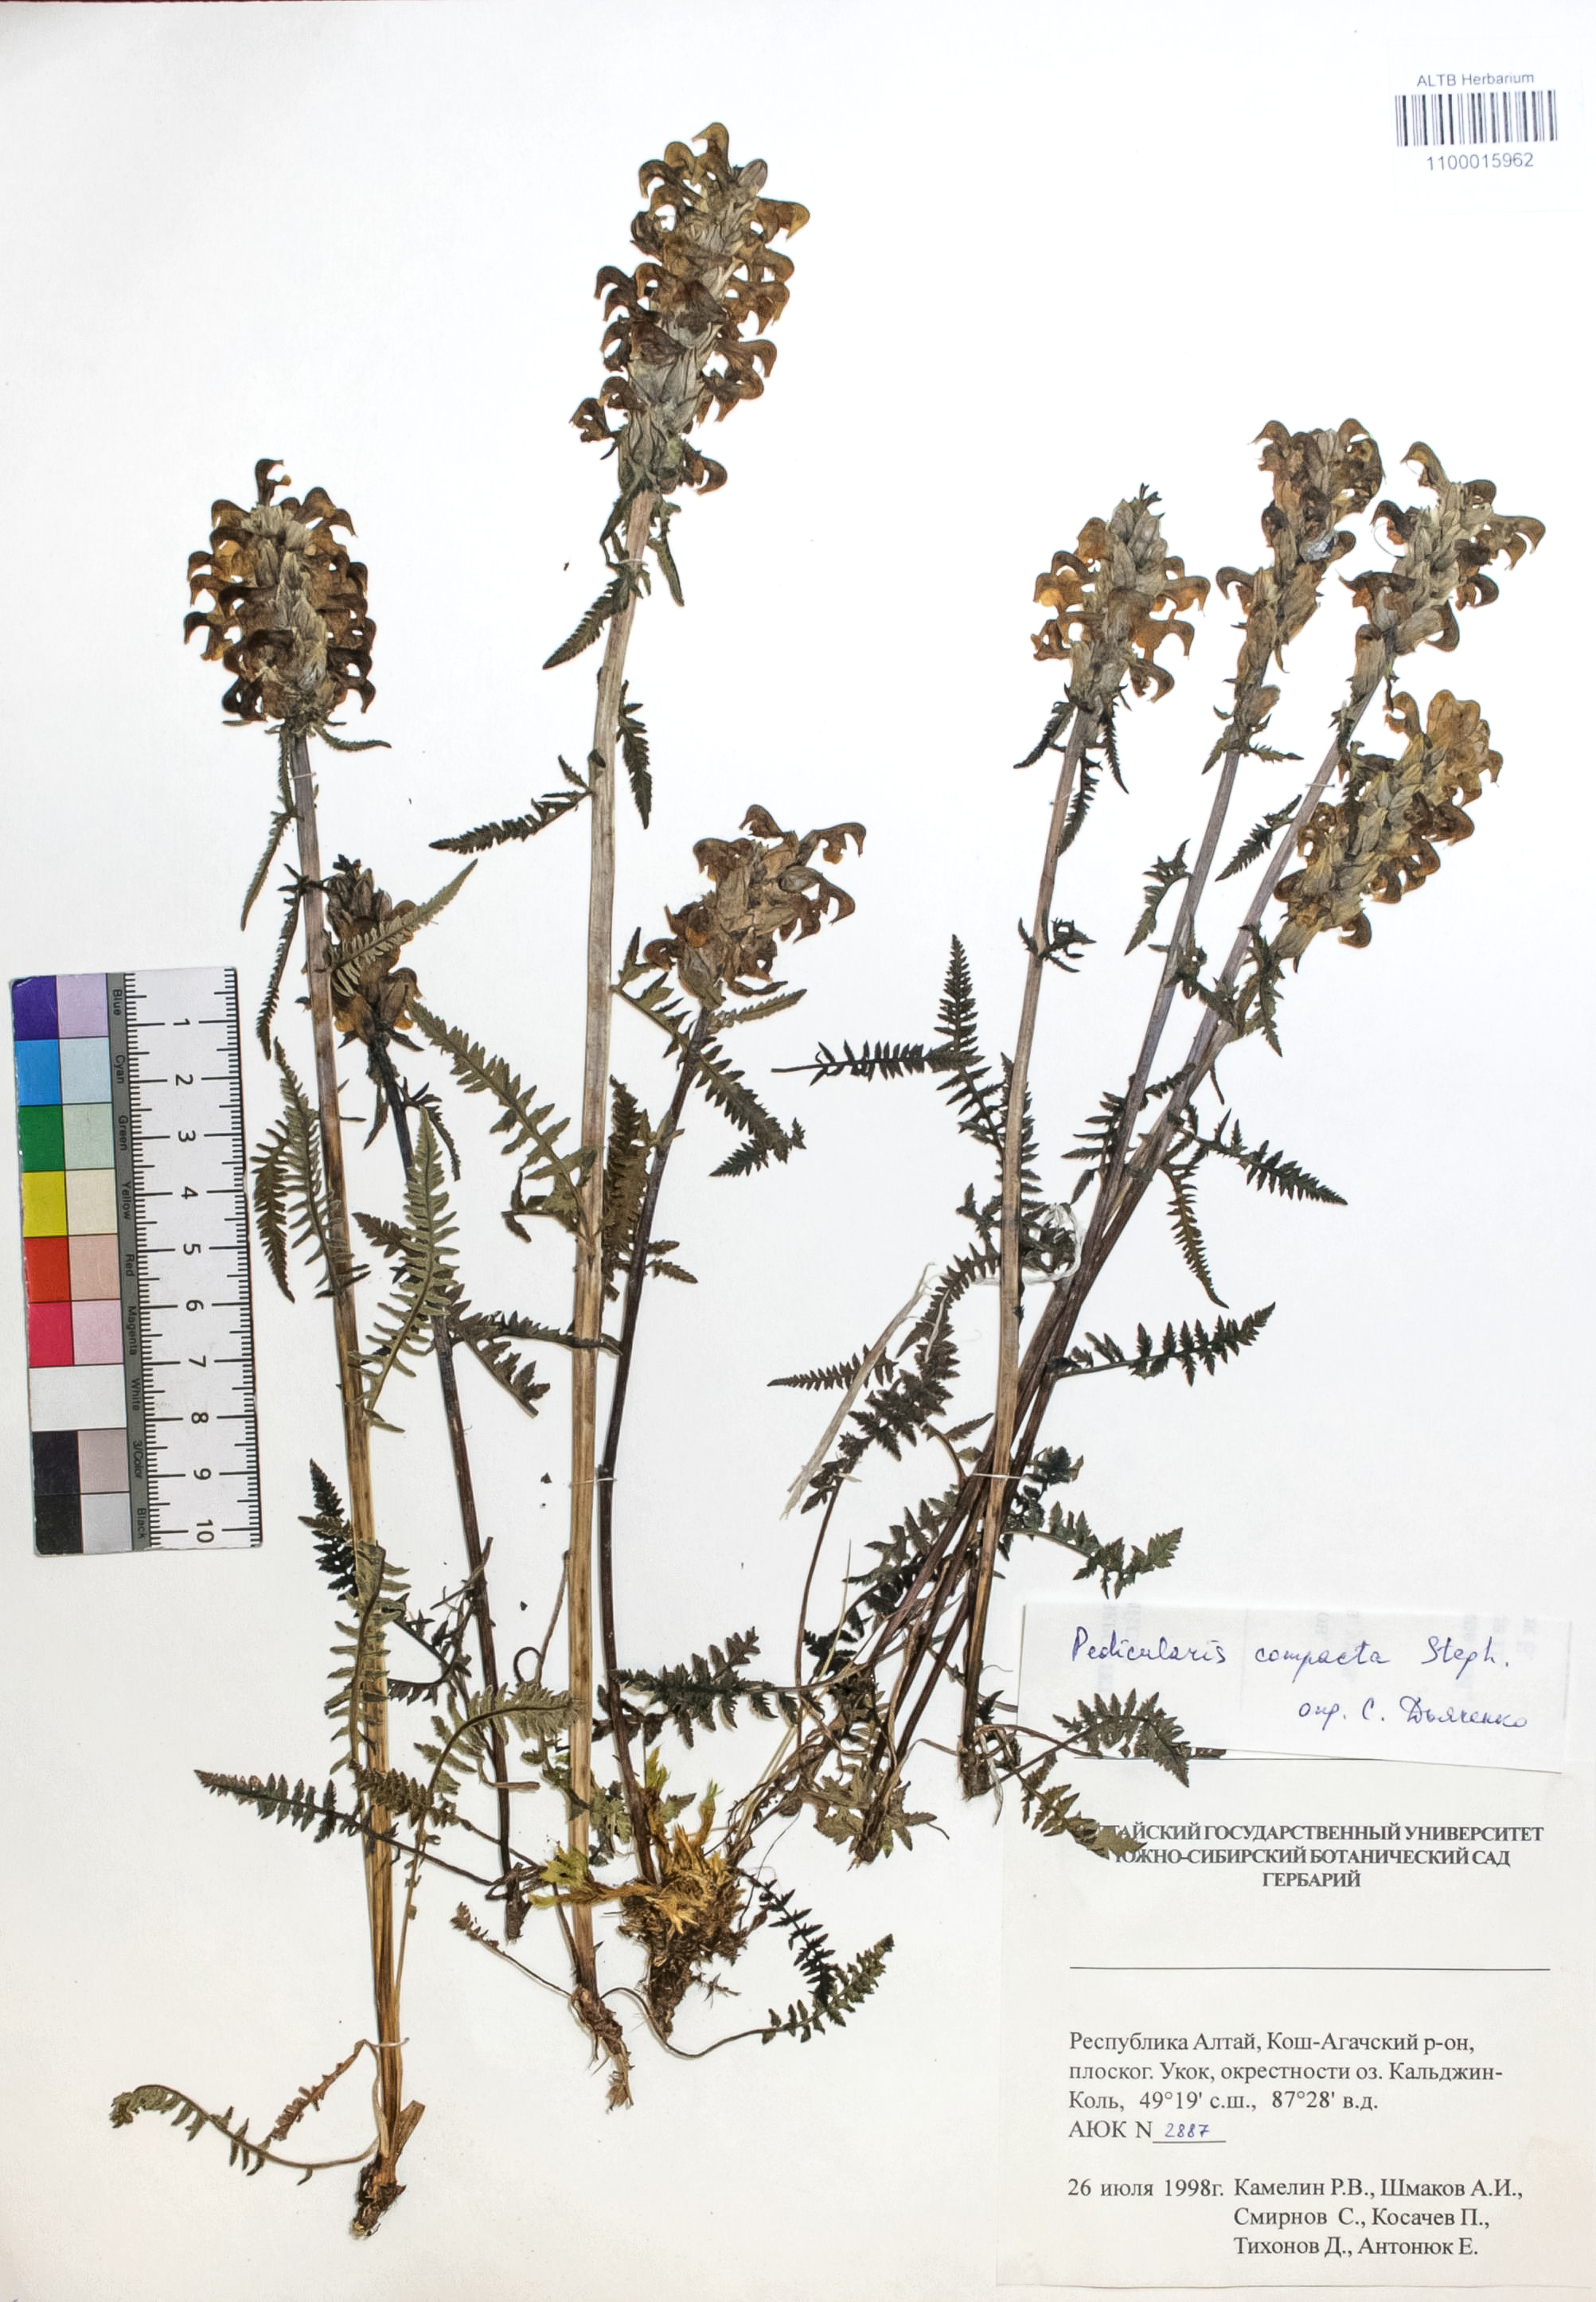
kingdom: Plantae
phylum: Tracheophyta
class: Magnoliopsida
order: Lamiales
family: Orobanchaceae
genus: Pedicularis
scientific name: Pedicularis compacta
